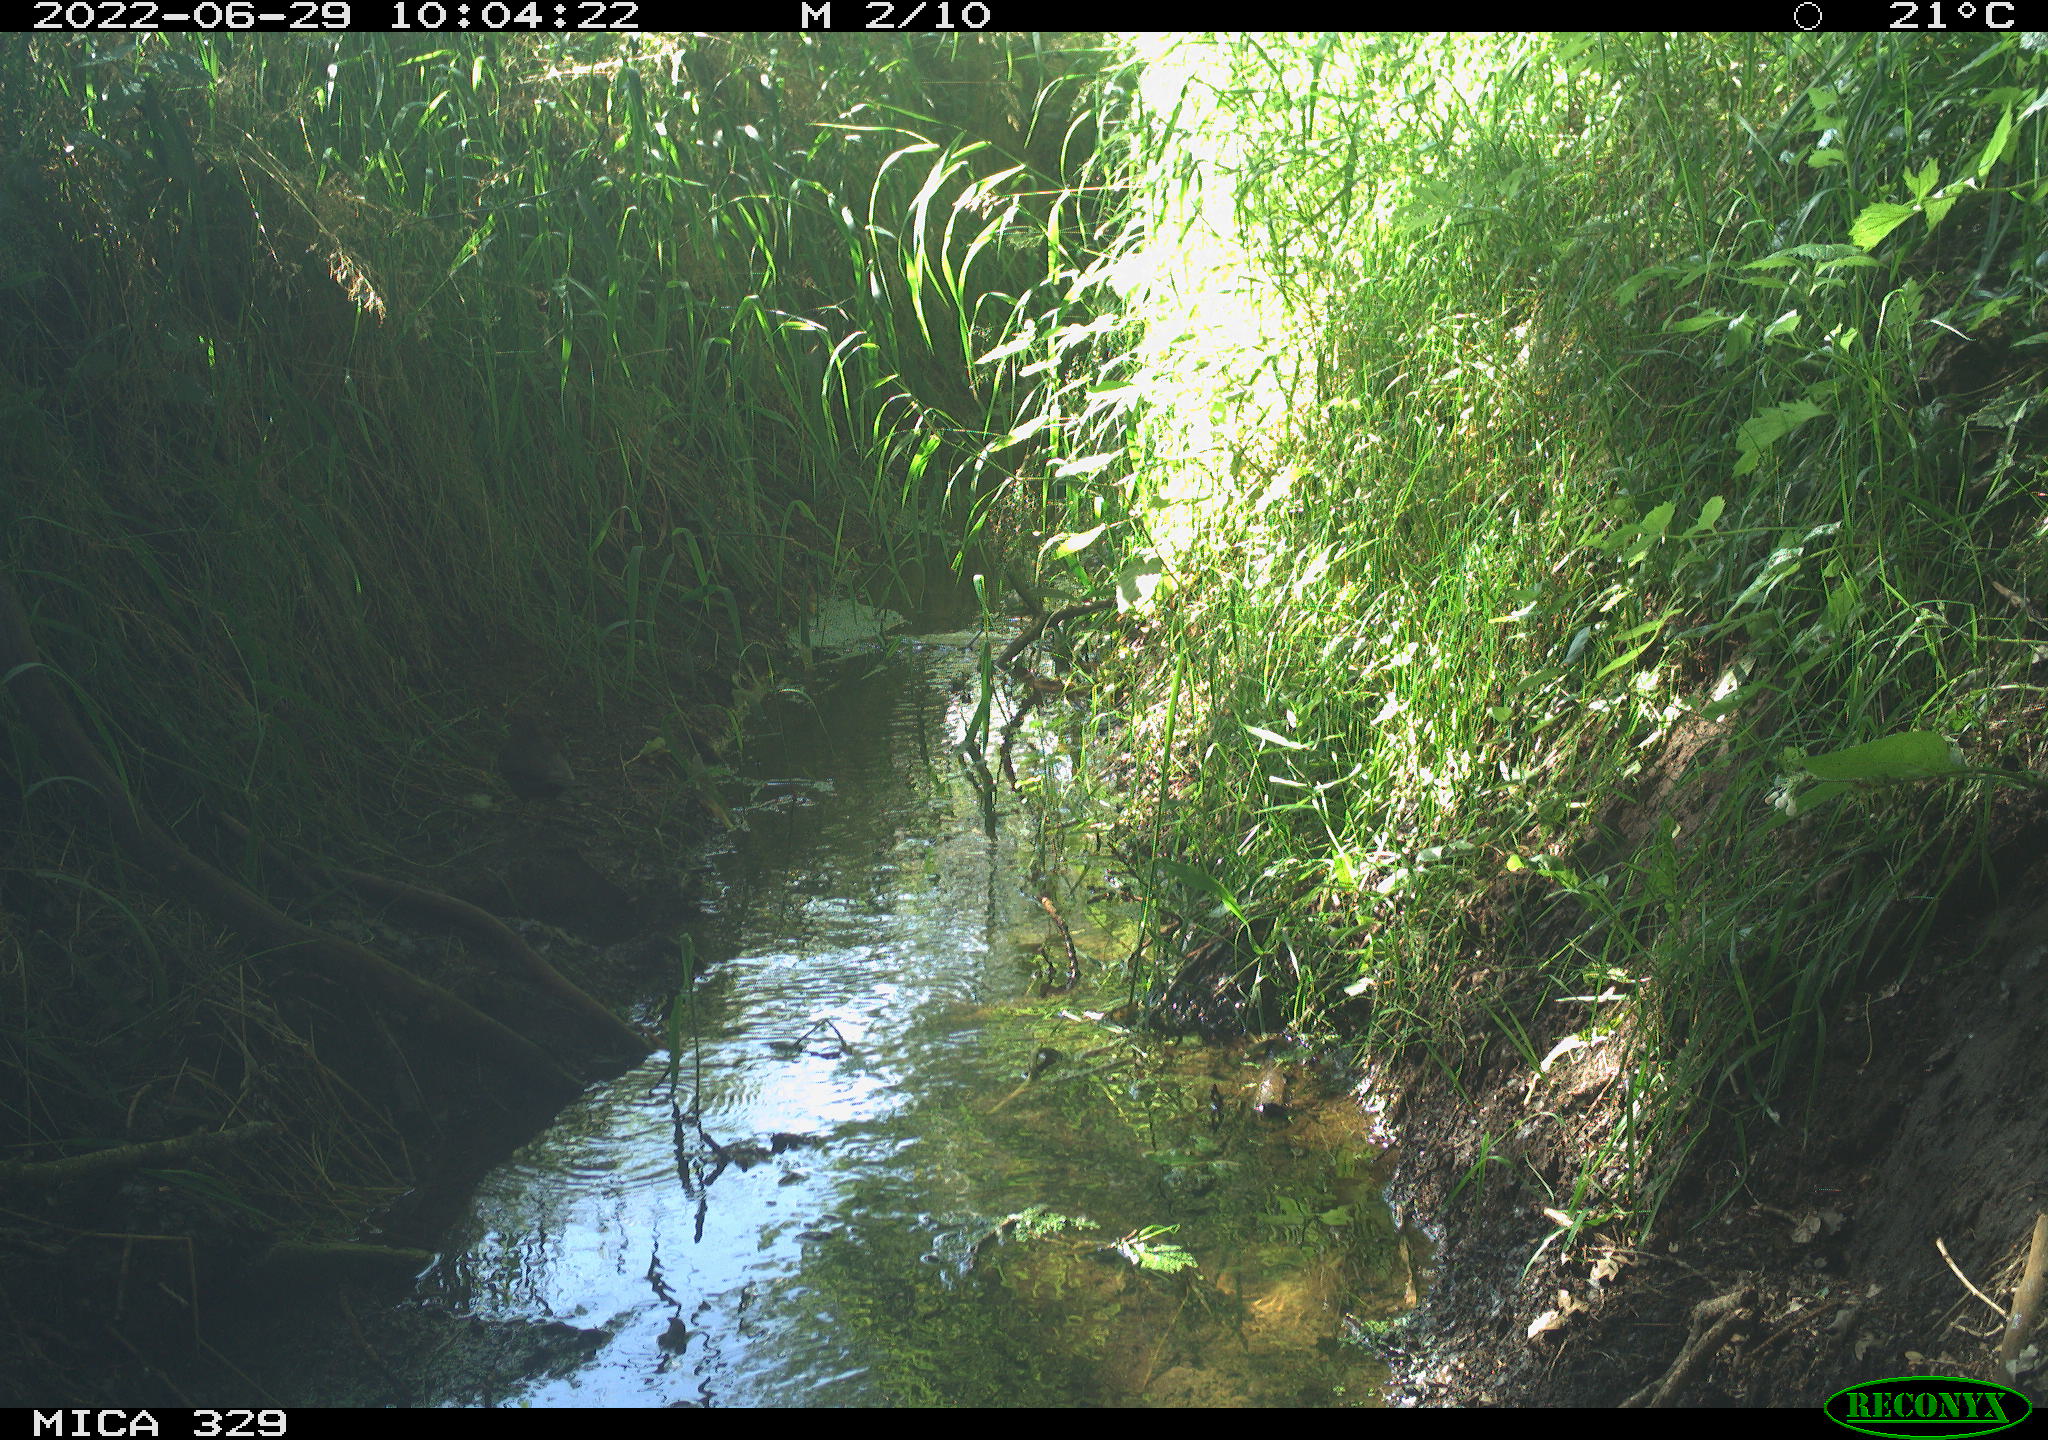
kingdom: Animalia
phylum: Chordata
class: Aves
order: Passeriformes
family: Turdidae
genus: Turdus
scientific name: Turdus merula
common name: Common blackbird
